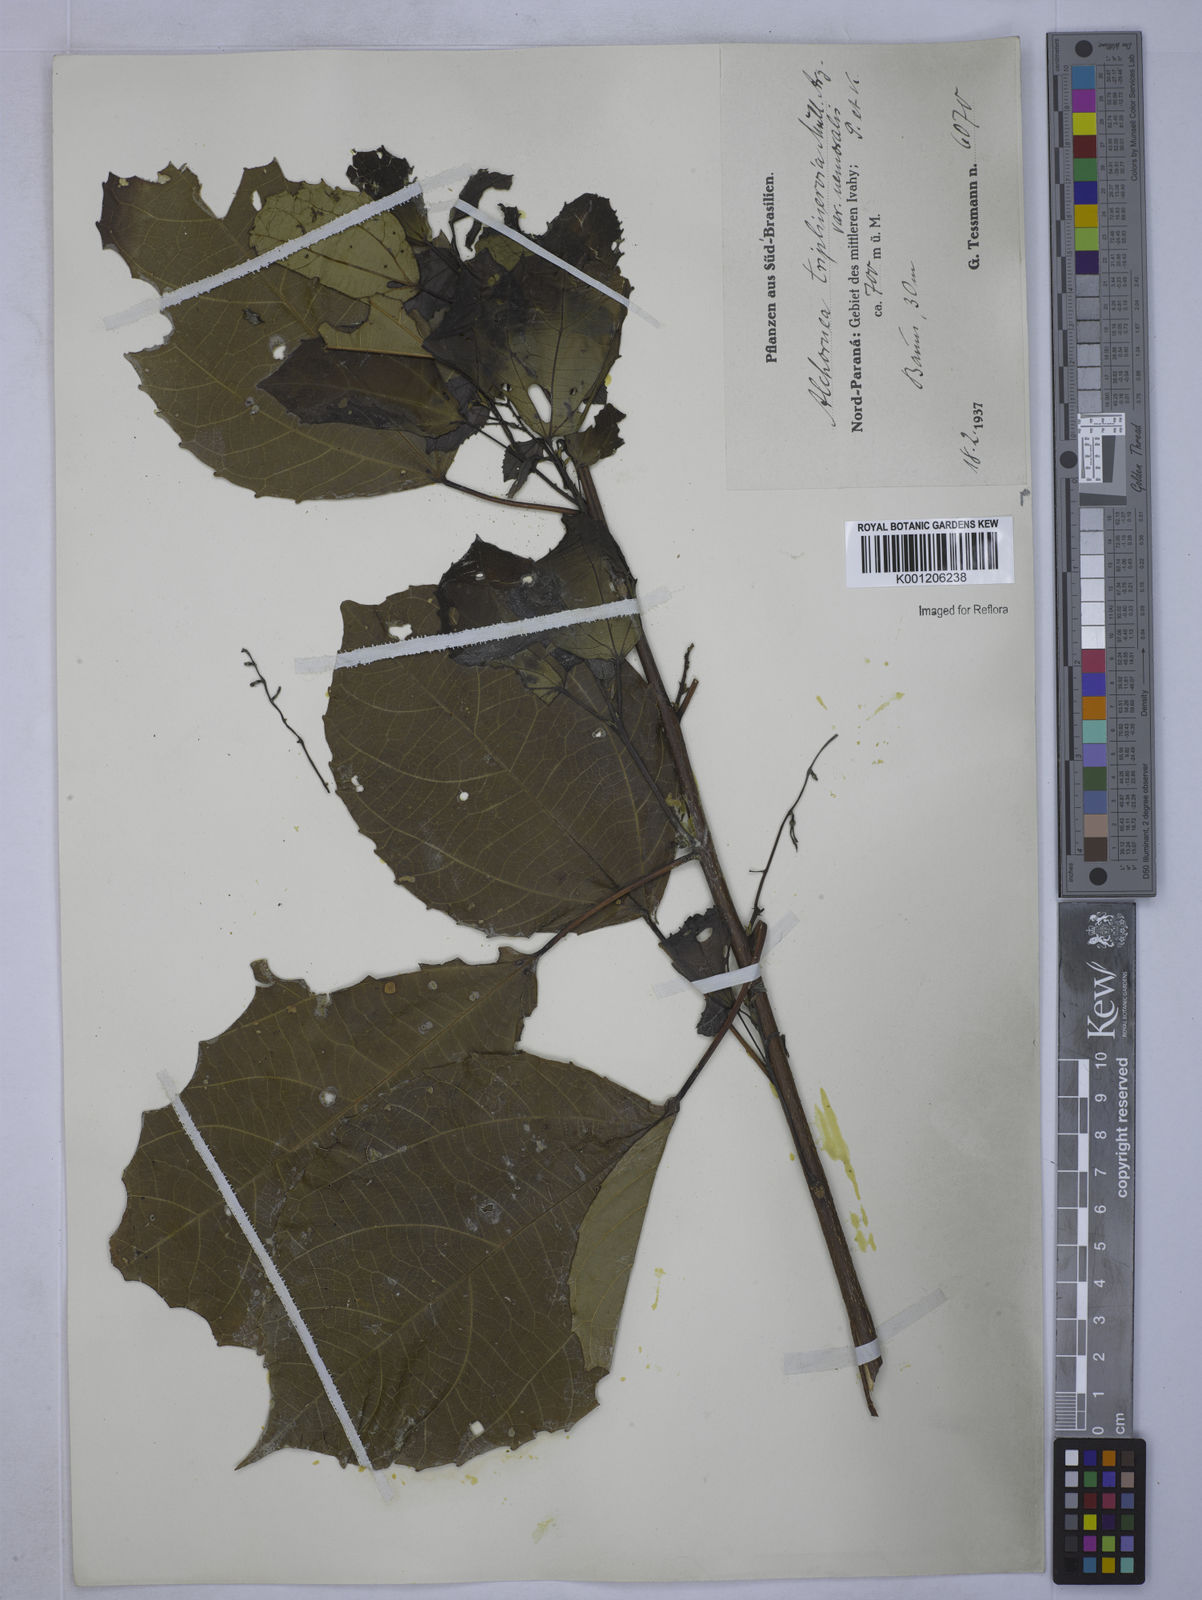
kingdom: Plantae
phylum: Tracheophyta
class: Magnoliopsida
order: Malpighiales
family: Euphorbiaceae
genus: Alchornea
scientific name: Alchornea triplinervia
